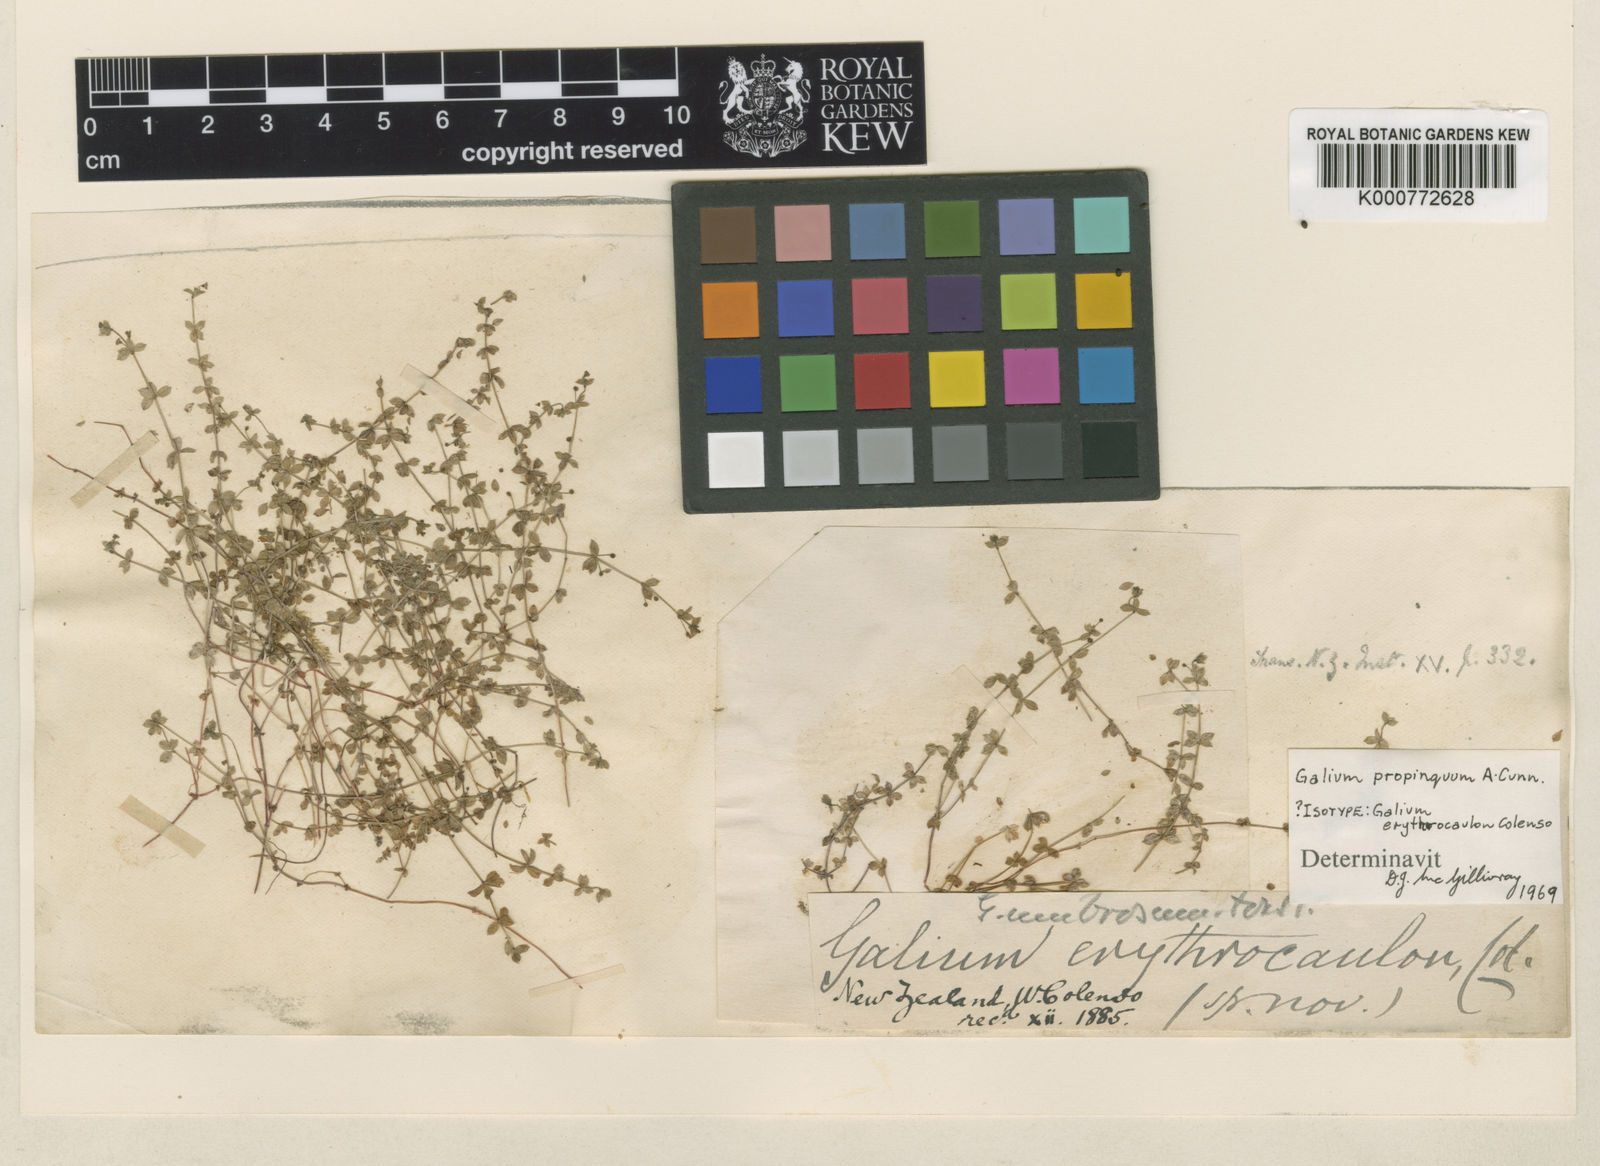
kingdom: Plantae
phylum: Tracheophyta
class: Magnoliopsida
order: Gentianales
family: Rubiaceae
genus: Galium
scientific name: Galium propinquum
